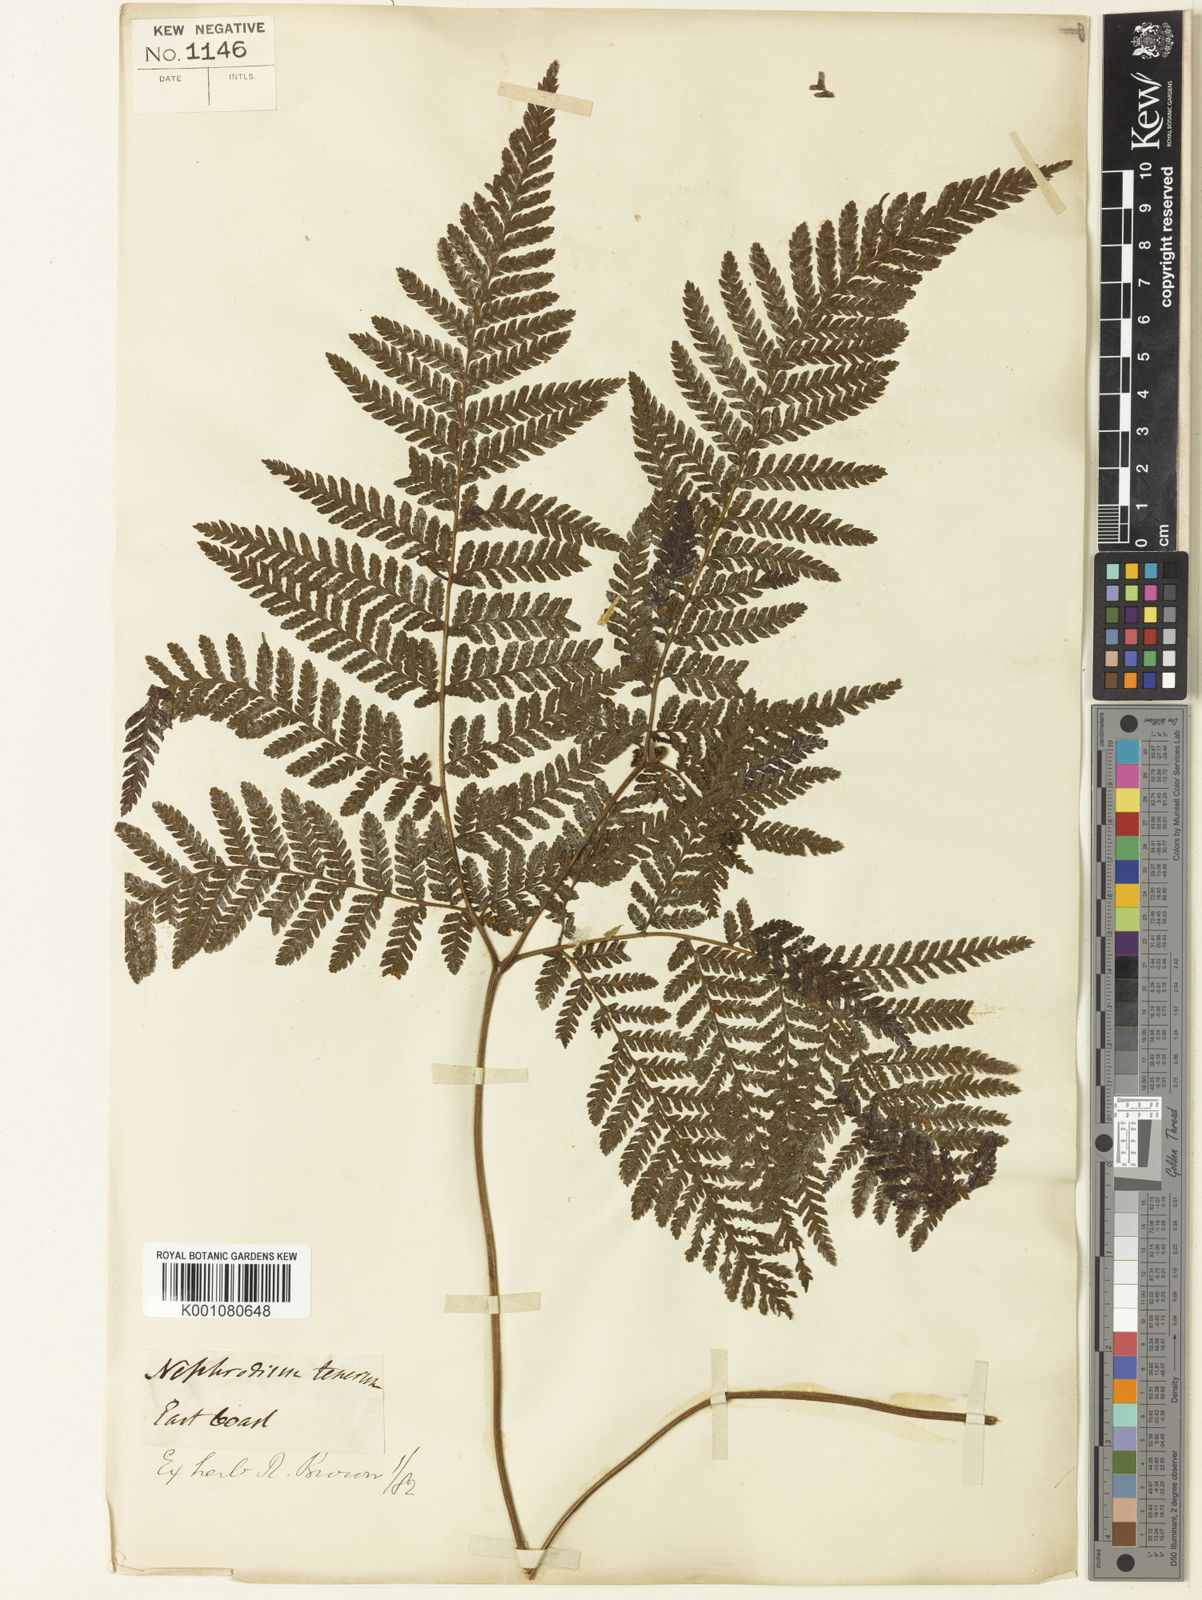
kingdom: Plantae
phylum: Tracheophyta
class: Polypodiopsida
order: Polypodiales
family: Dryopteridaceae
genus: Lastreopsis
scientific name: Lastreopsis tenera
